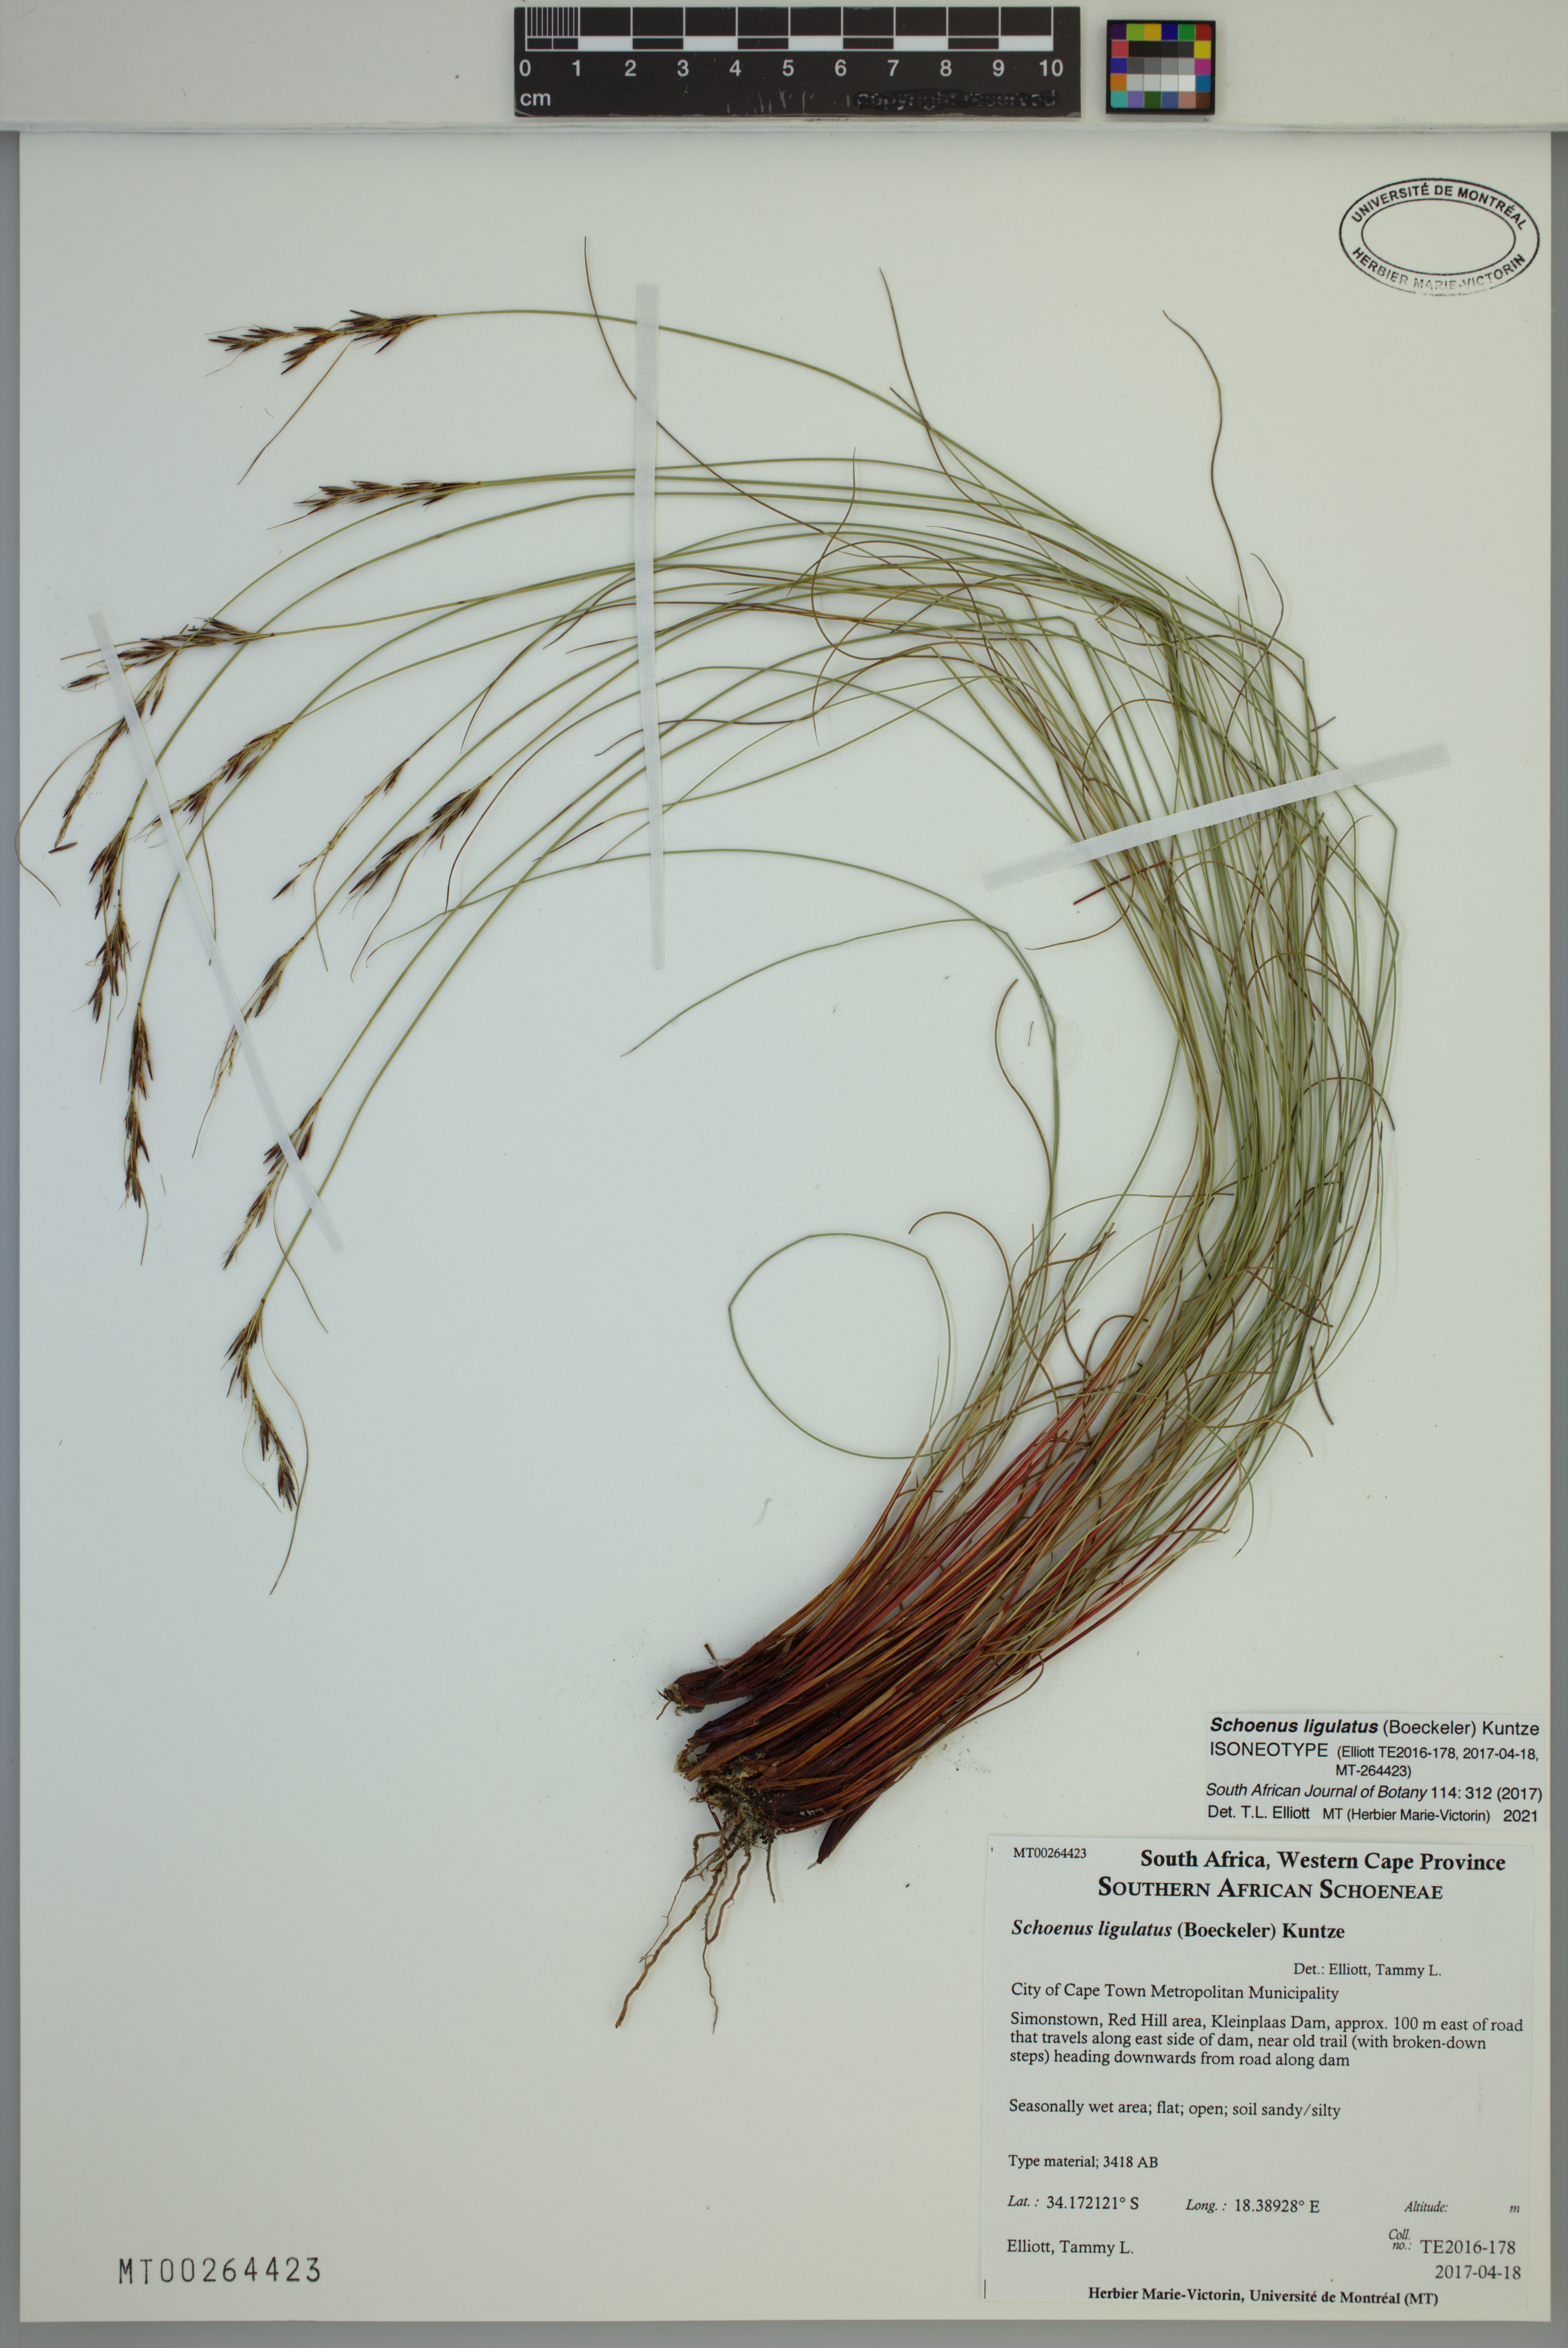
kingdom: Plantae
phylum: Tracheophyta
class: Liliopsida
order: Poales
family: Cyperaceae
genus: Schoenus
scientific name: Schoenus ligulatus
